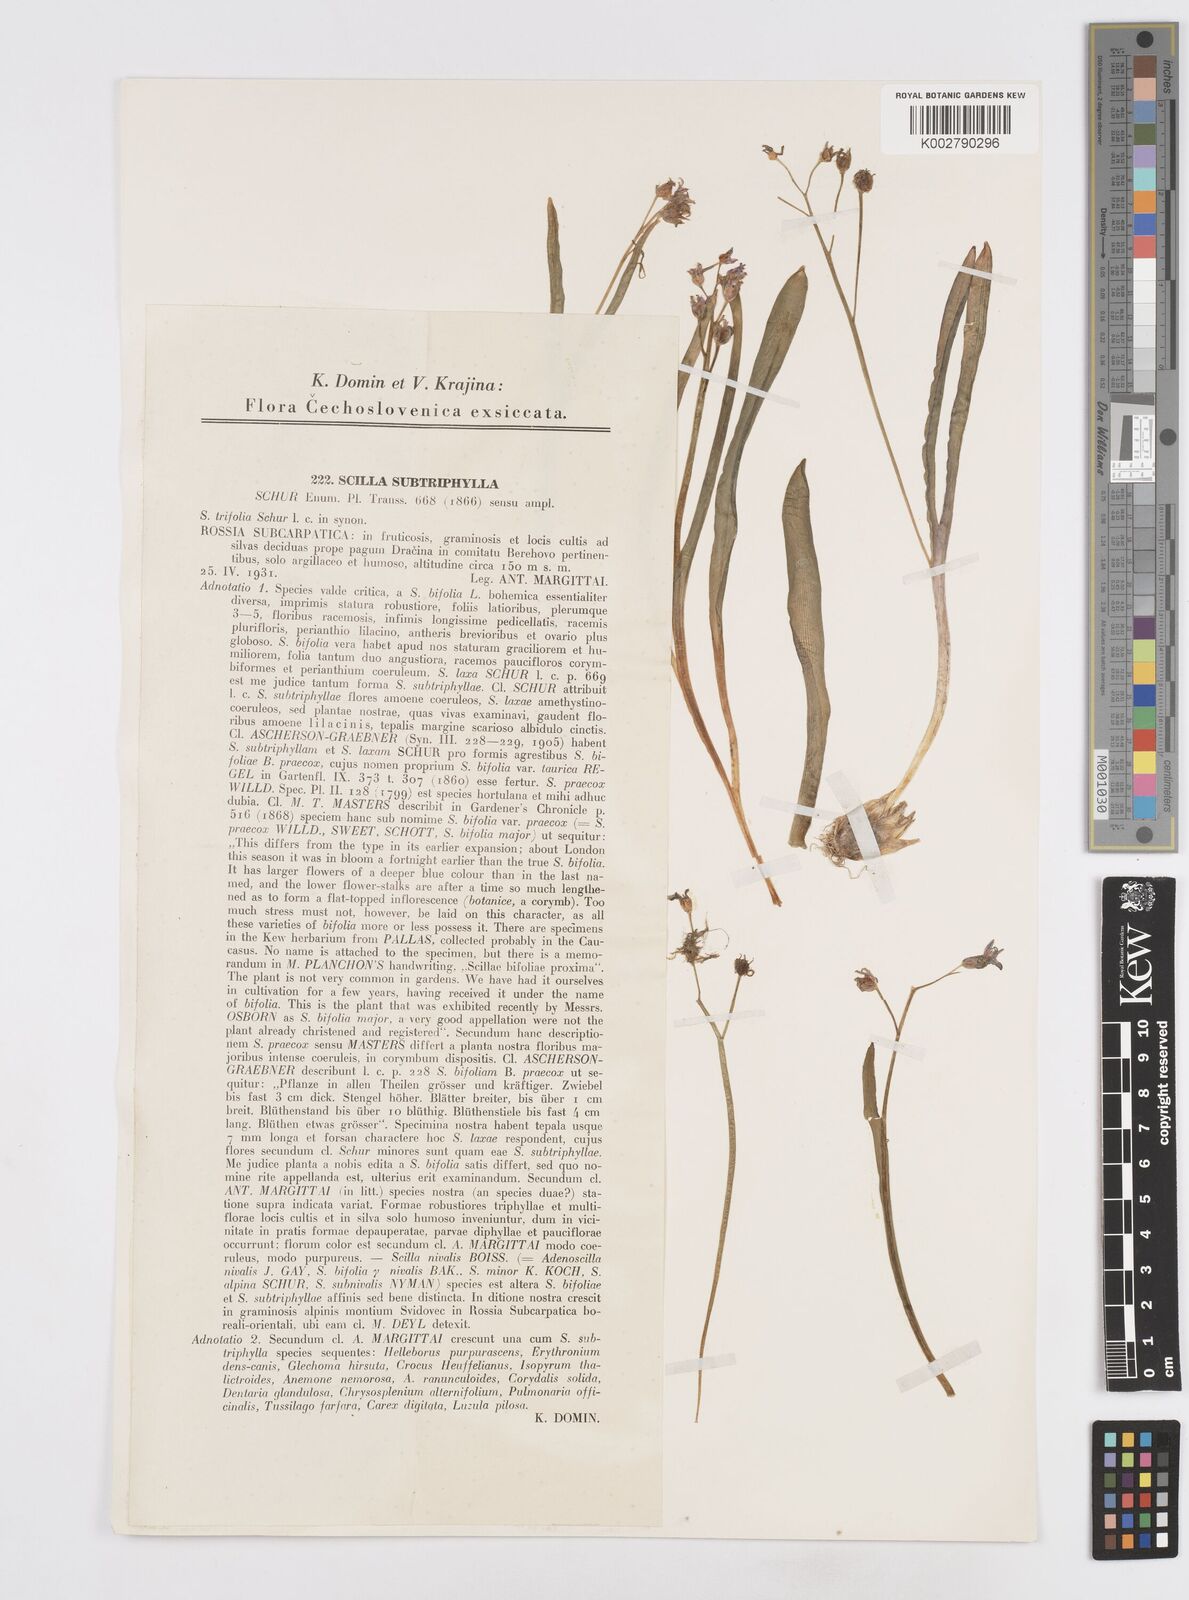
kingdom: Plantae
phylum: Tracheophyta
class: Liliopsida
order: Asparagales
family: Asparagaceae
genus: Scilla
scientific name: Scilla nivalis
